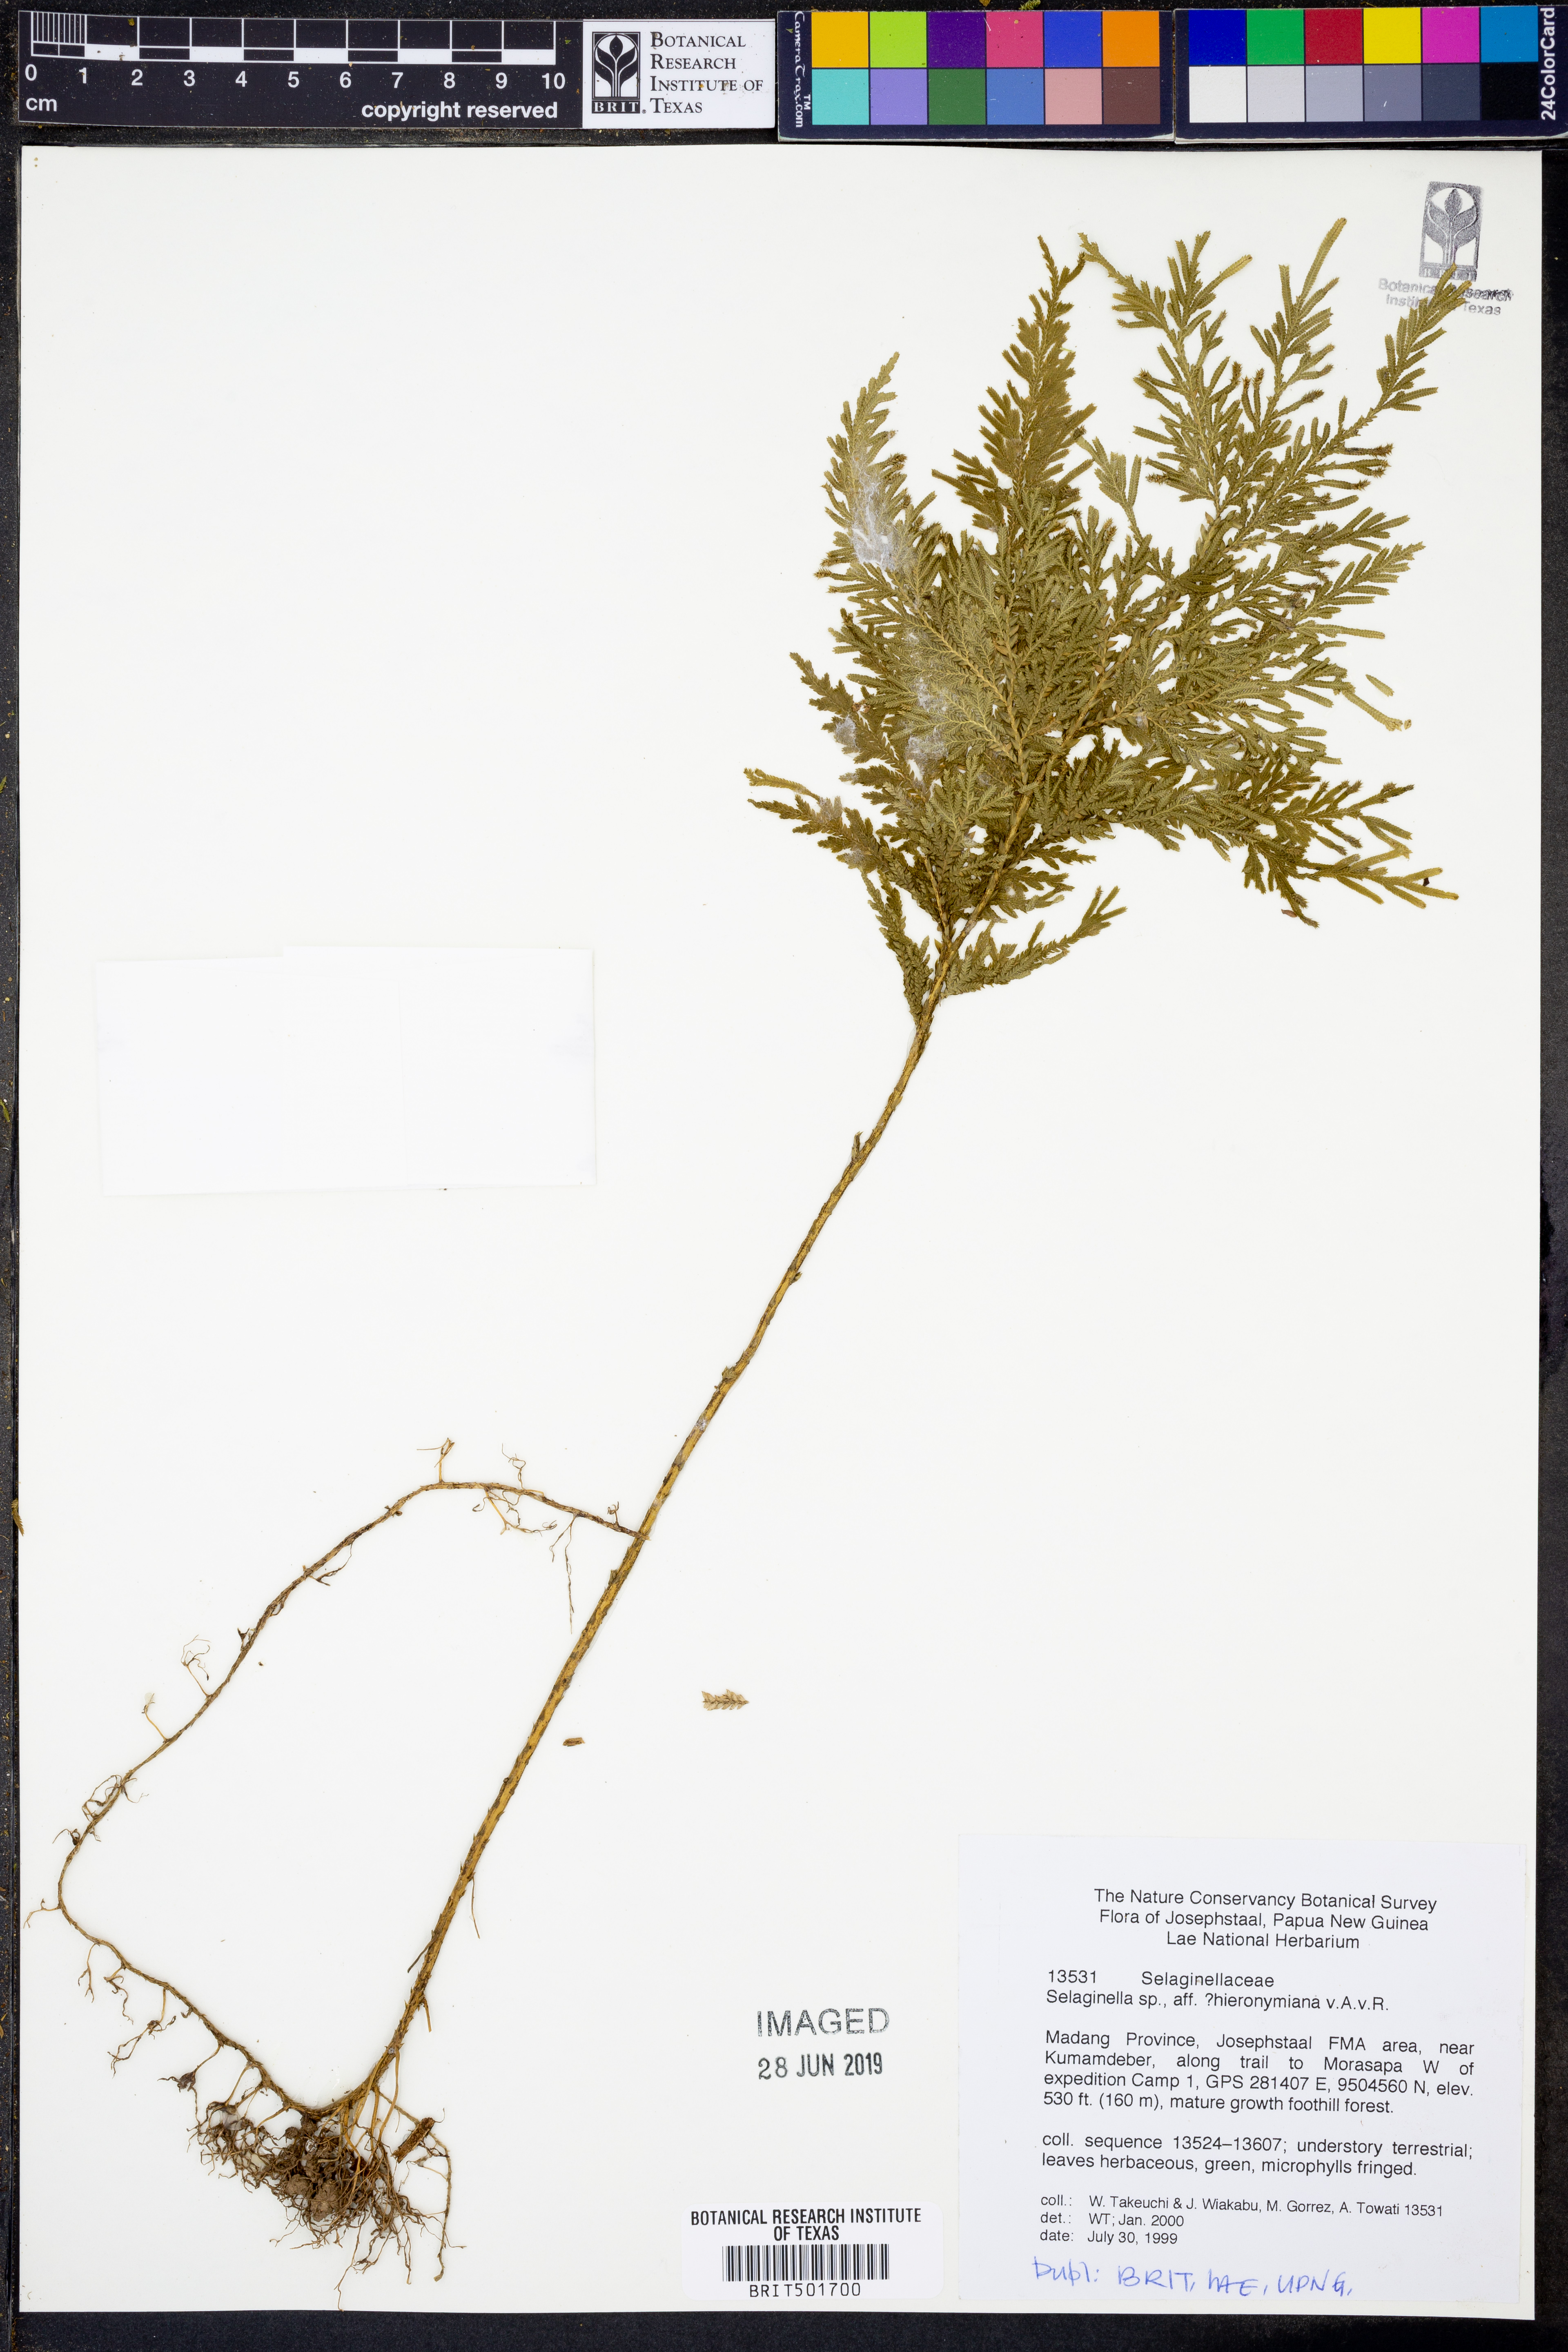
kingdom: Plantae
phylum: Tracheophyta
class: Lycopodiopsida
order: Selaginellales
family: Selaginellaceae
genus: Selaginella
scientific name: Selaginella hieronymiana
